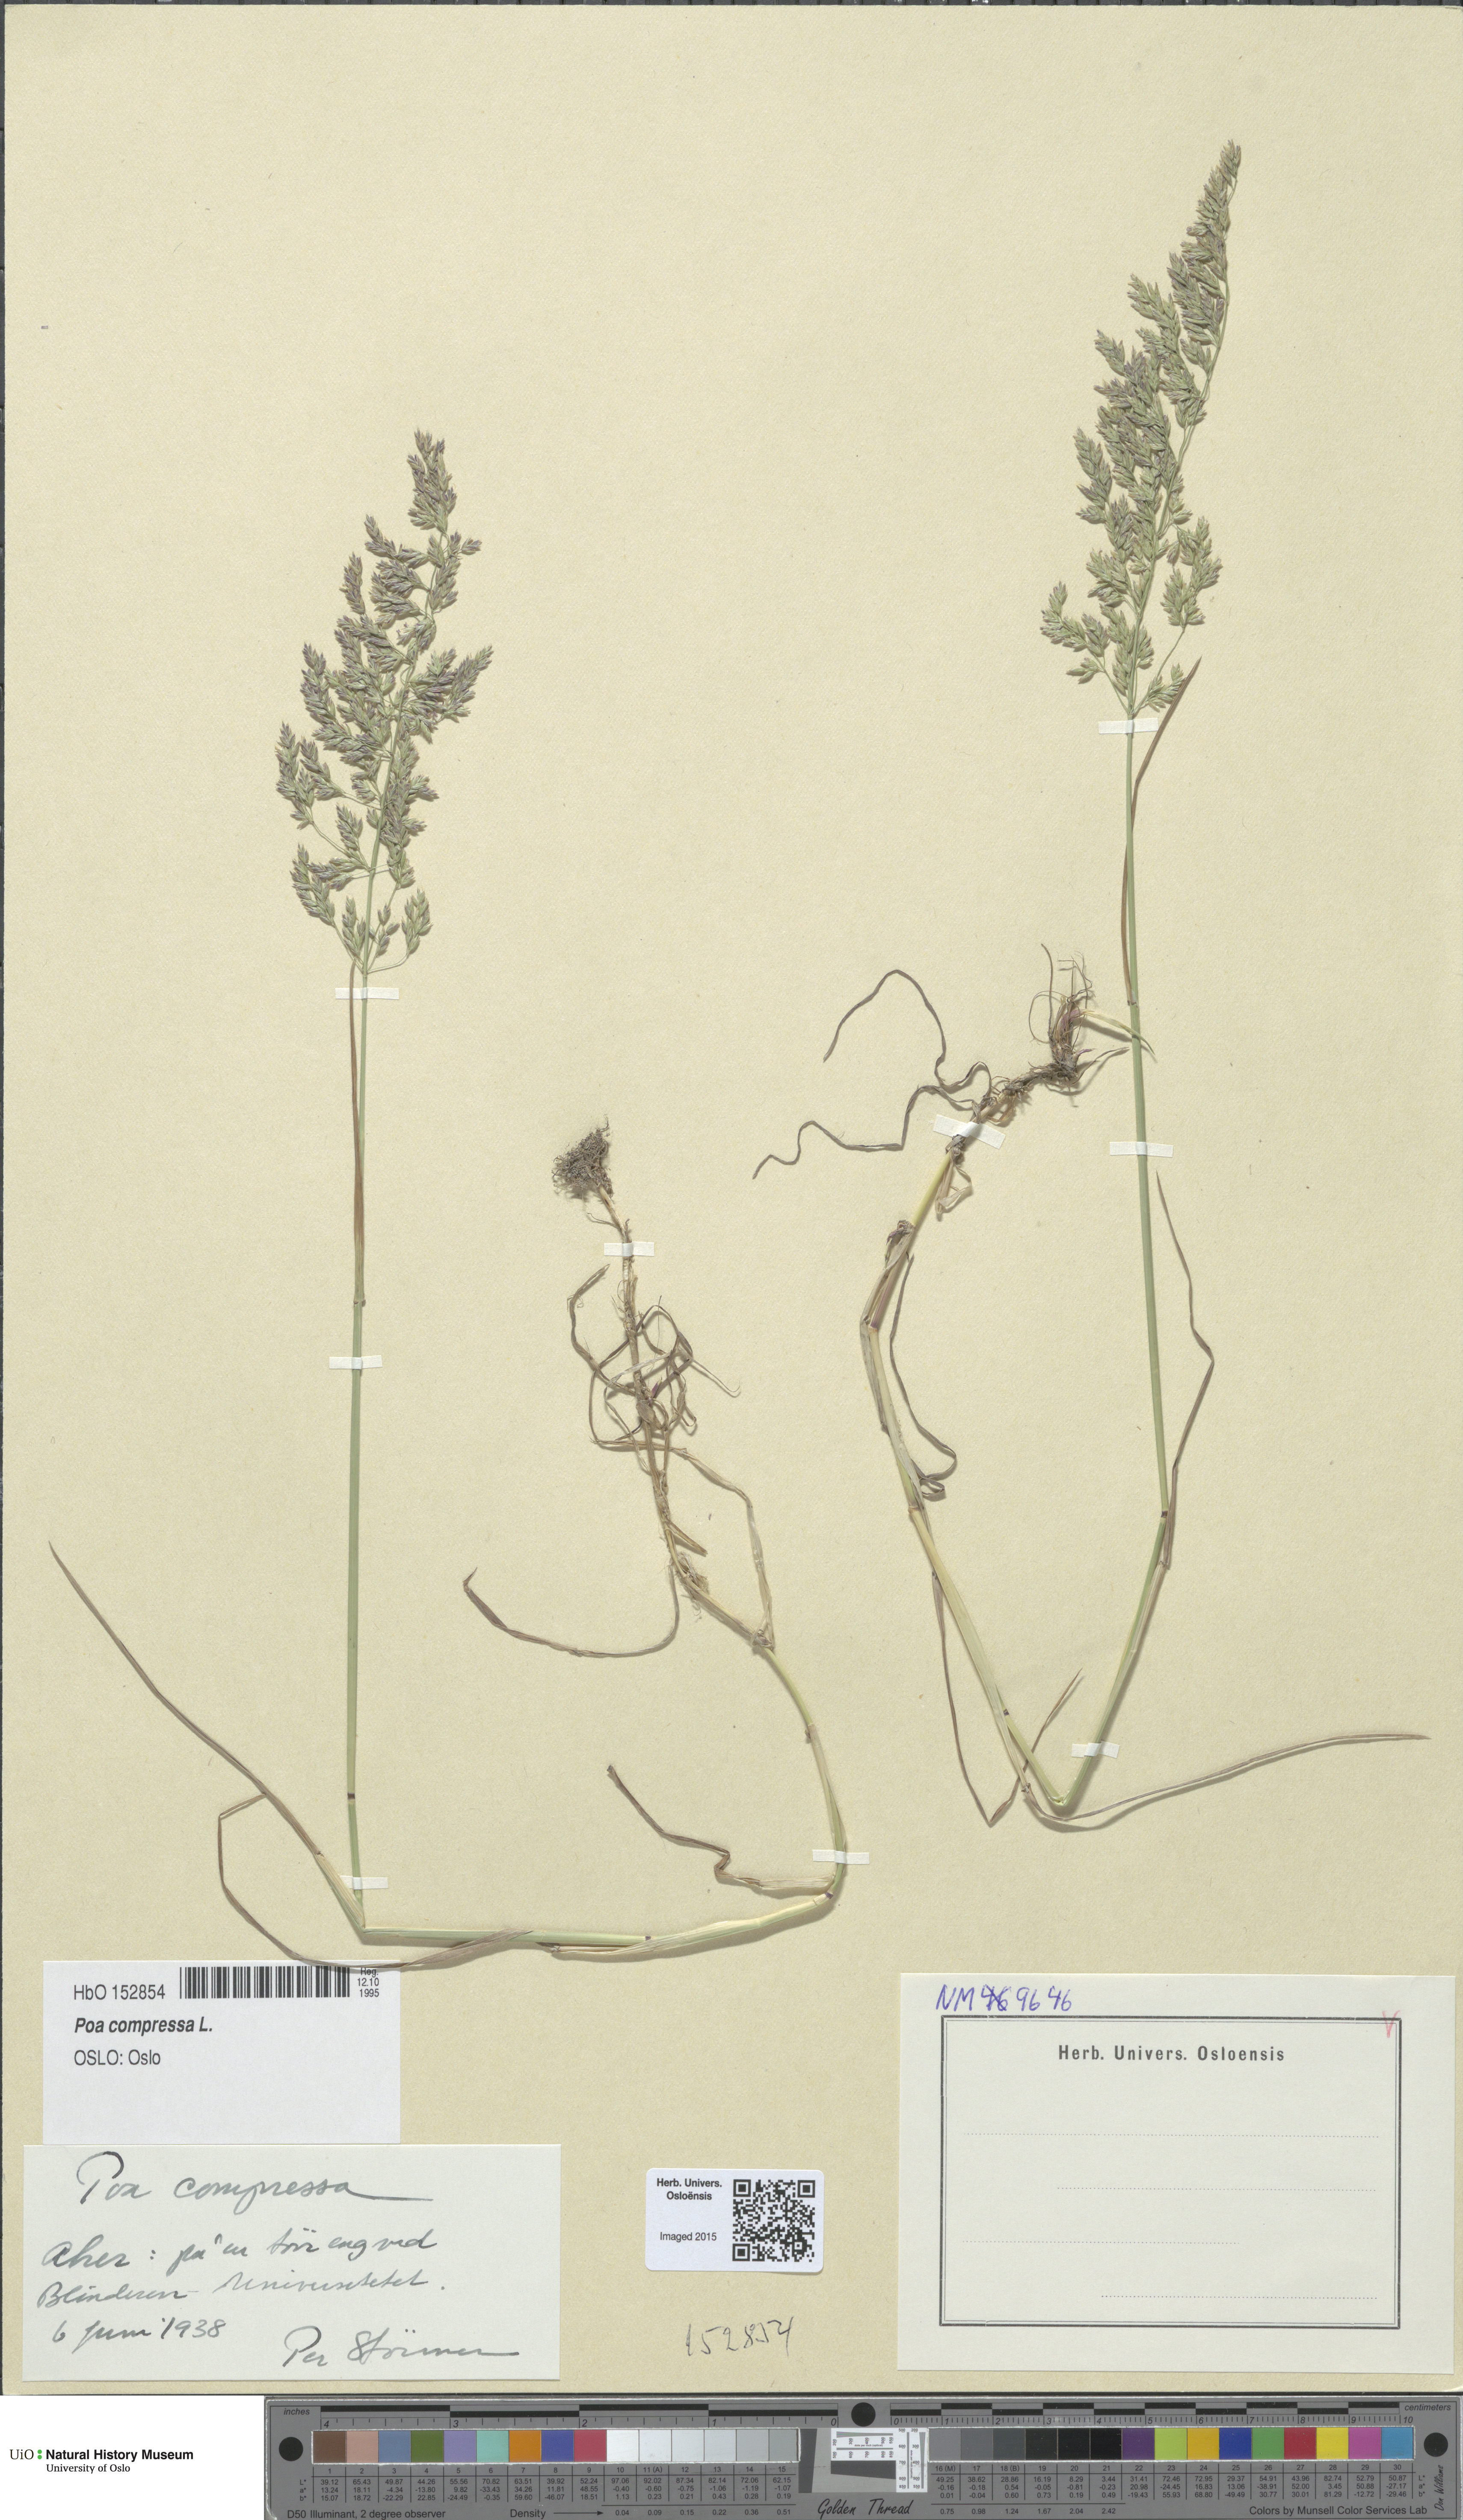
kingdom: Plantae
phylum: Tracheophyta
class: Liliopsida
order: Poales
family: Poaceae
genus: Poa
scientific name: Poa compressa
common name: Canada bluegrass
